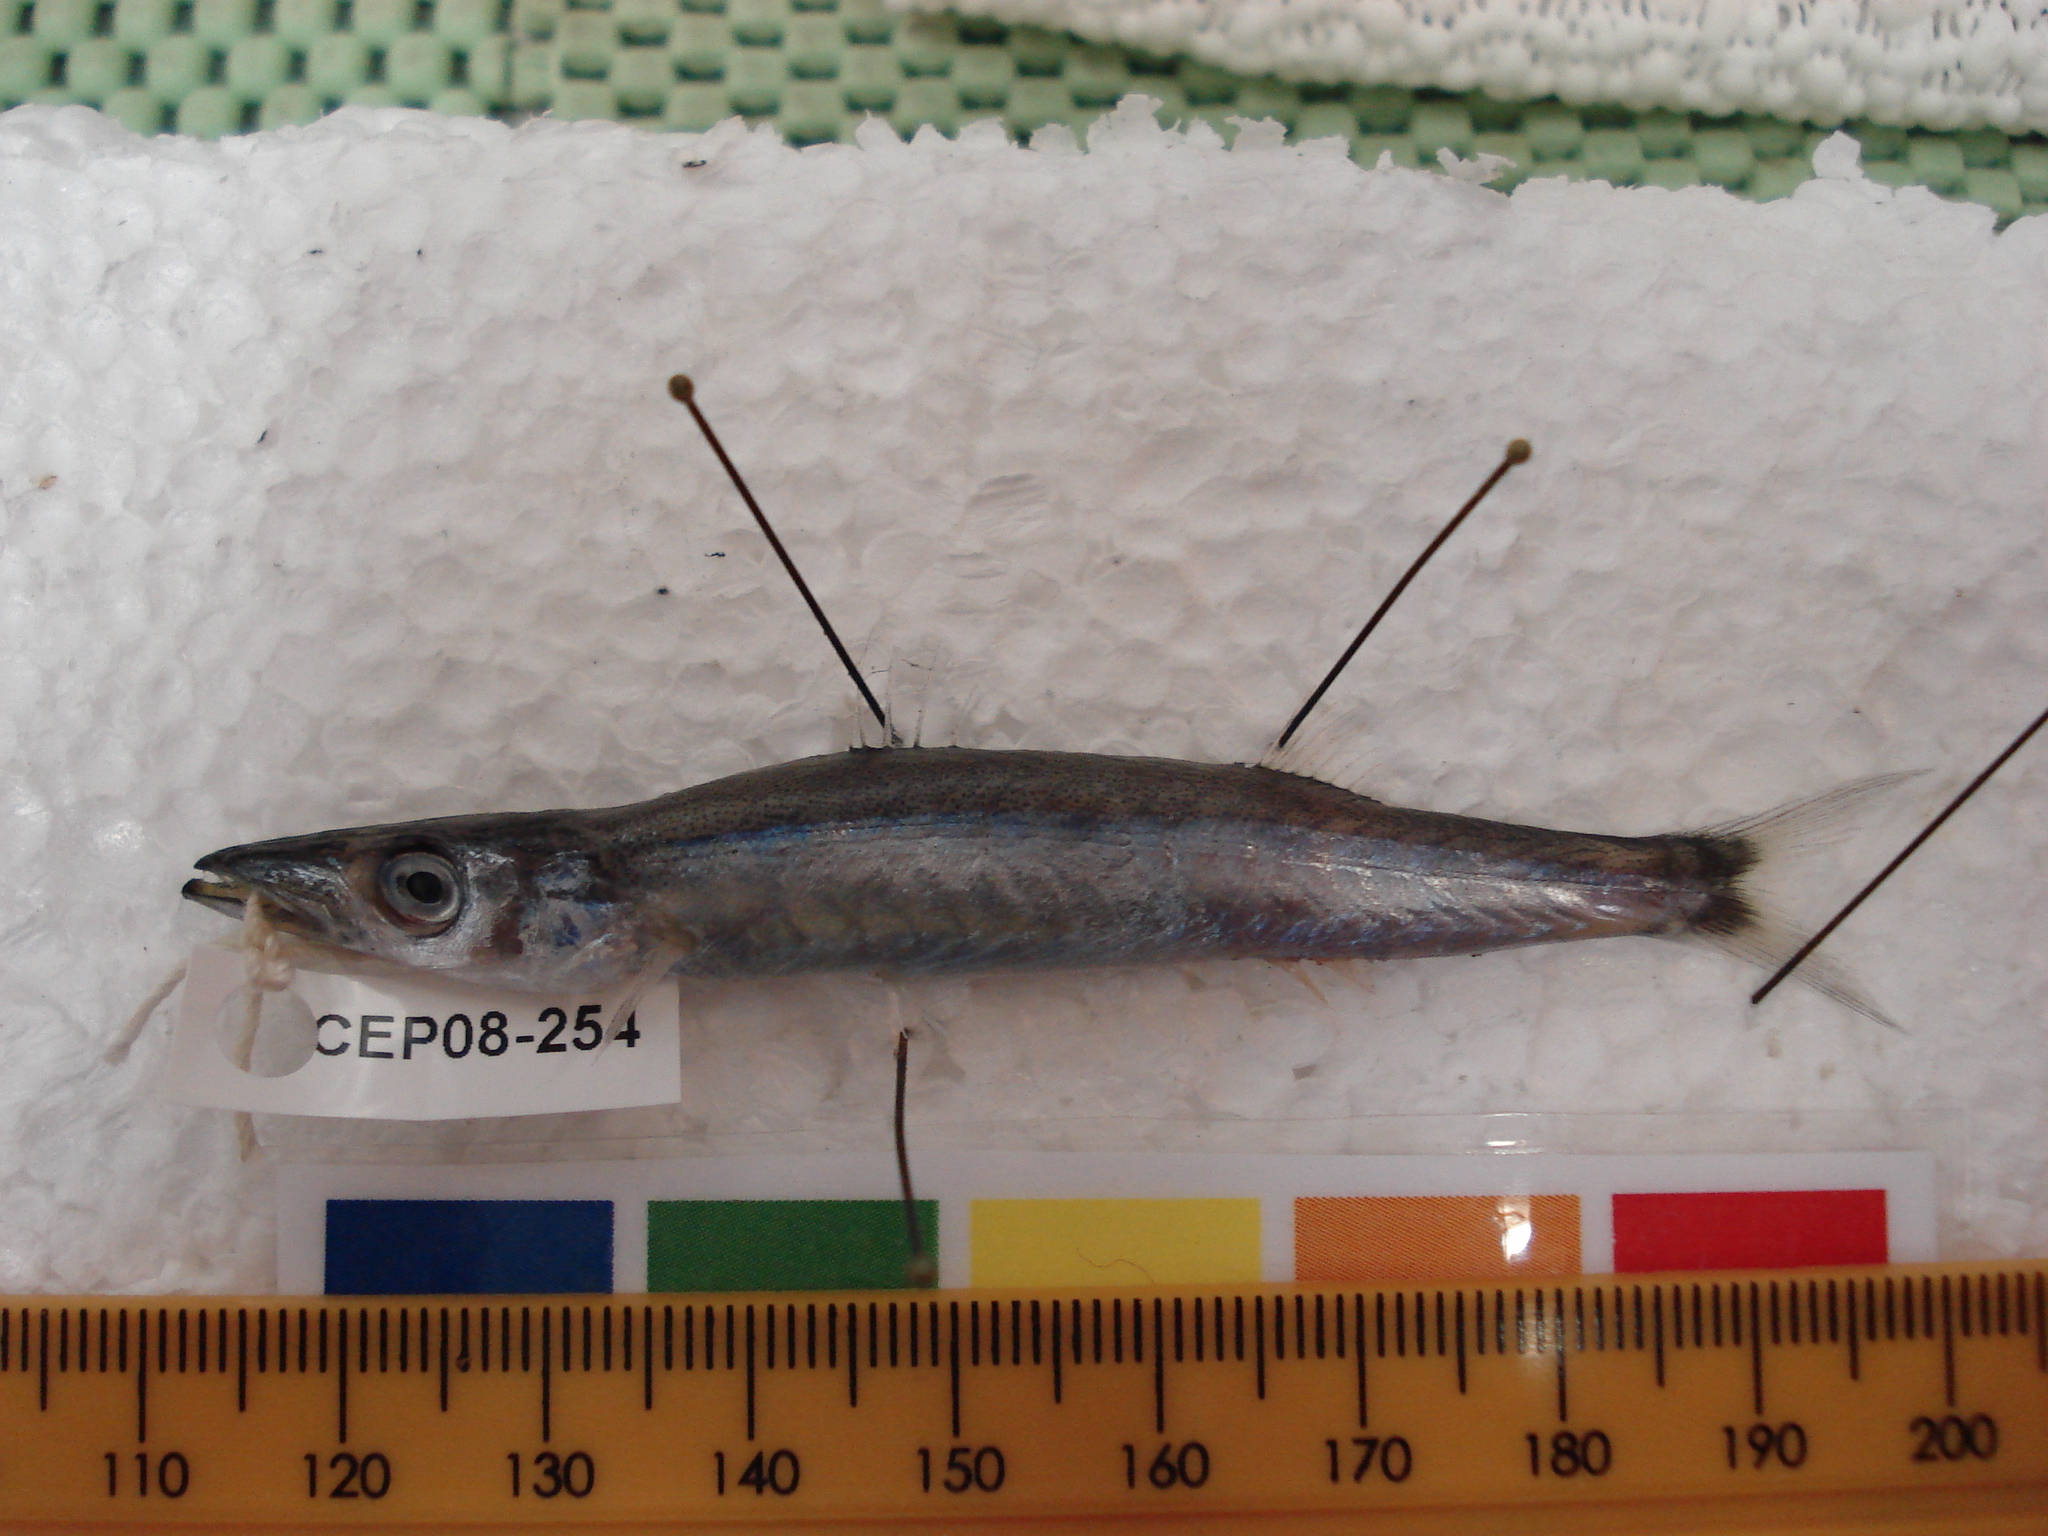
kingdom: Animalia
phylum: Chordata
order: Perciformes
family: Sphyraenidae
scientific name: Sphyraenidae
